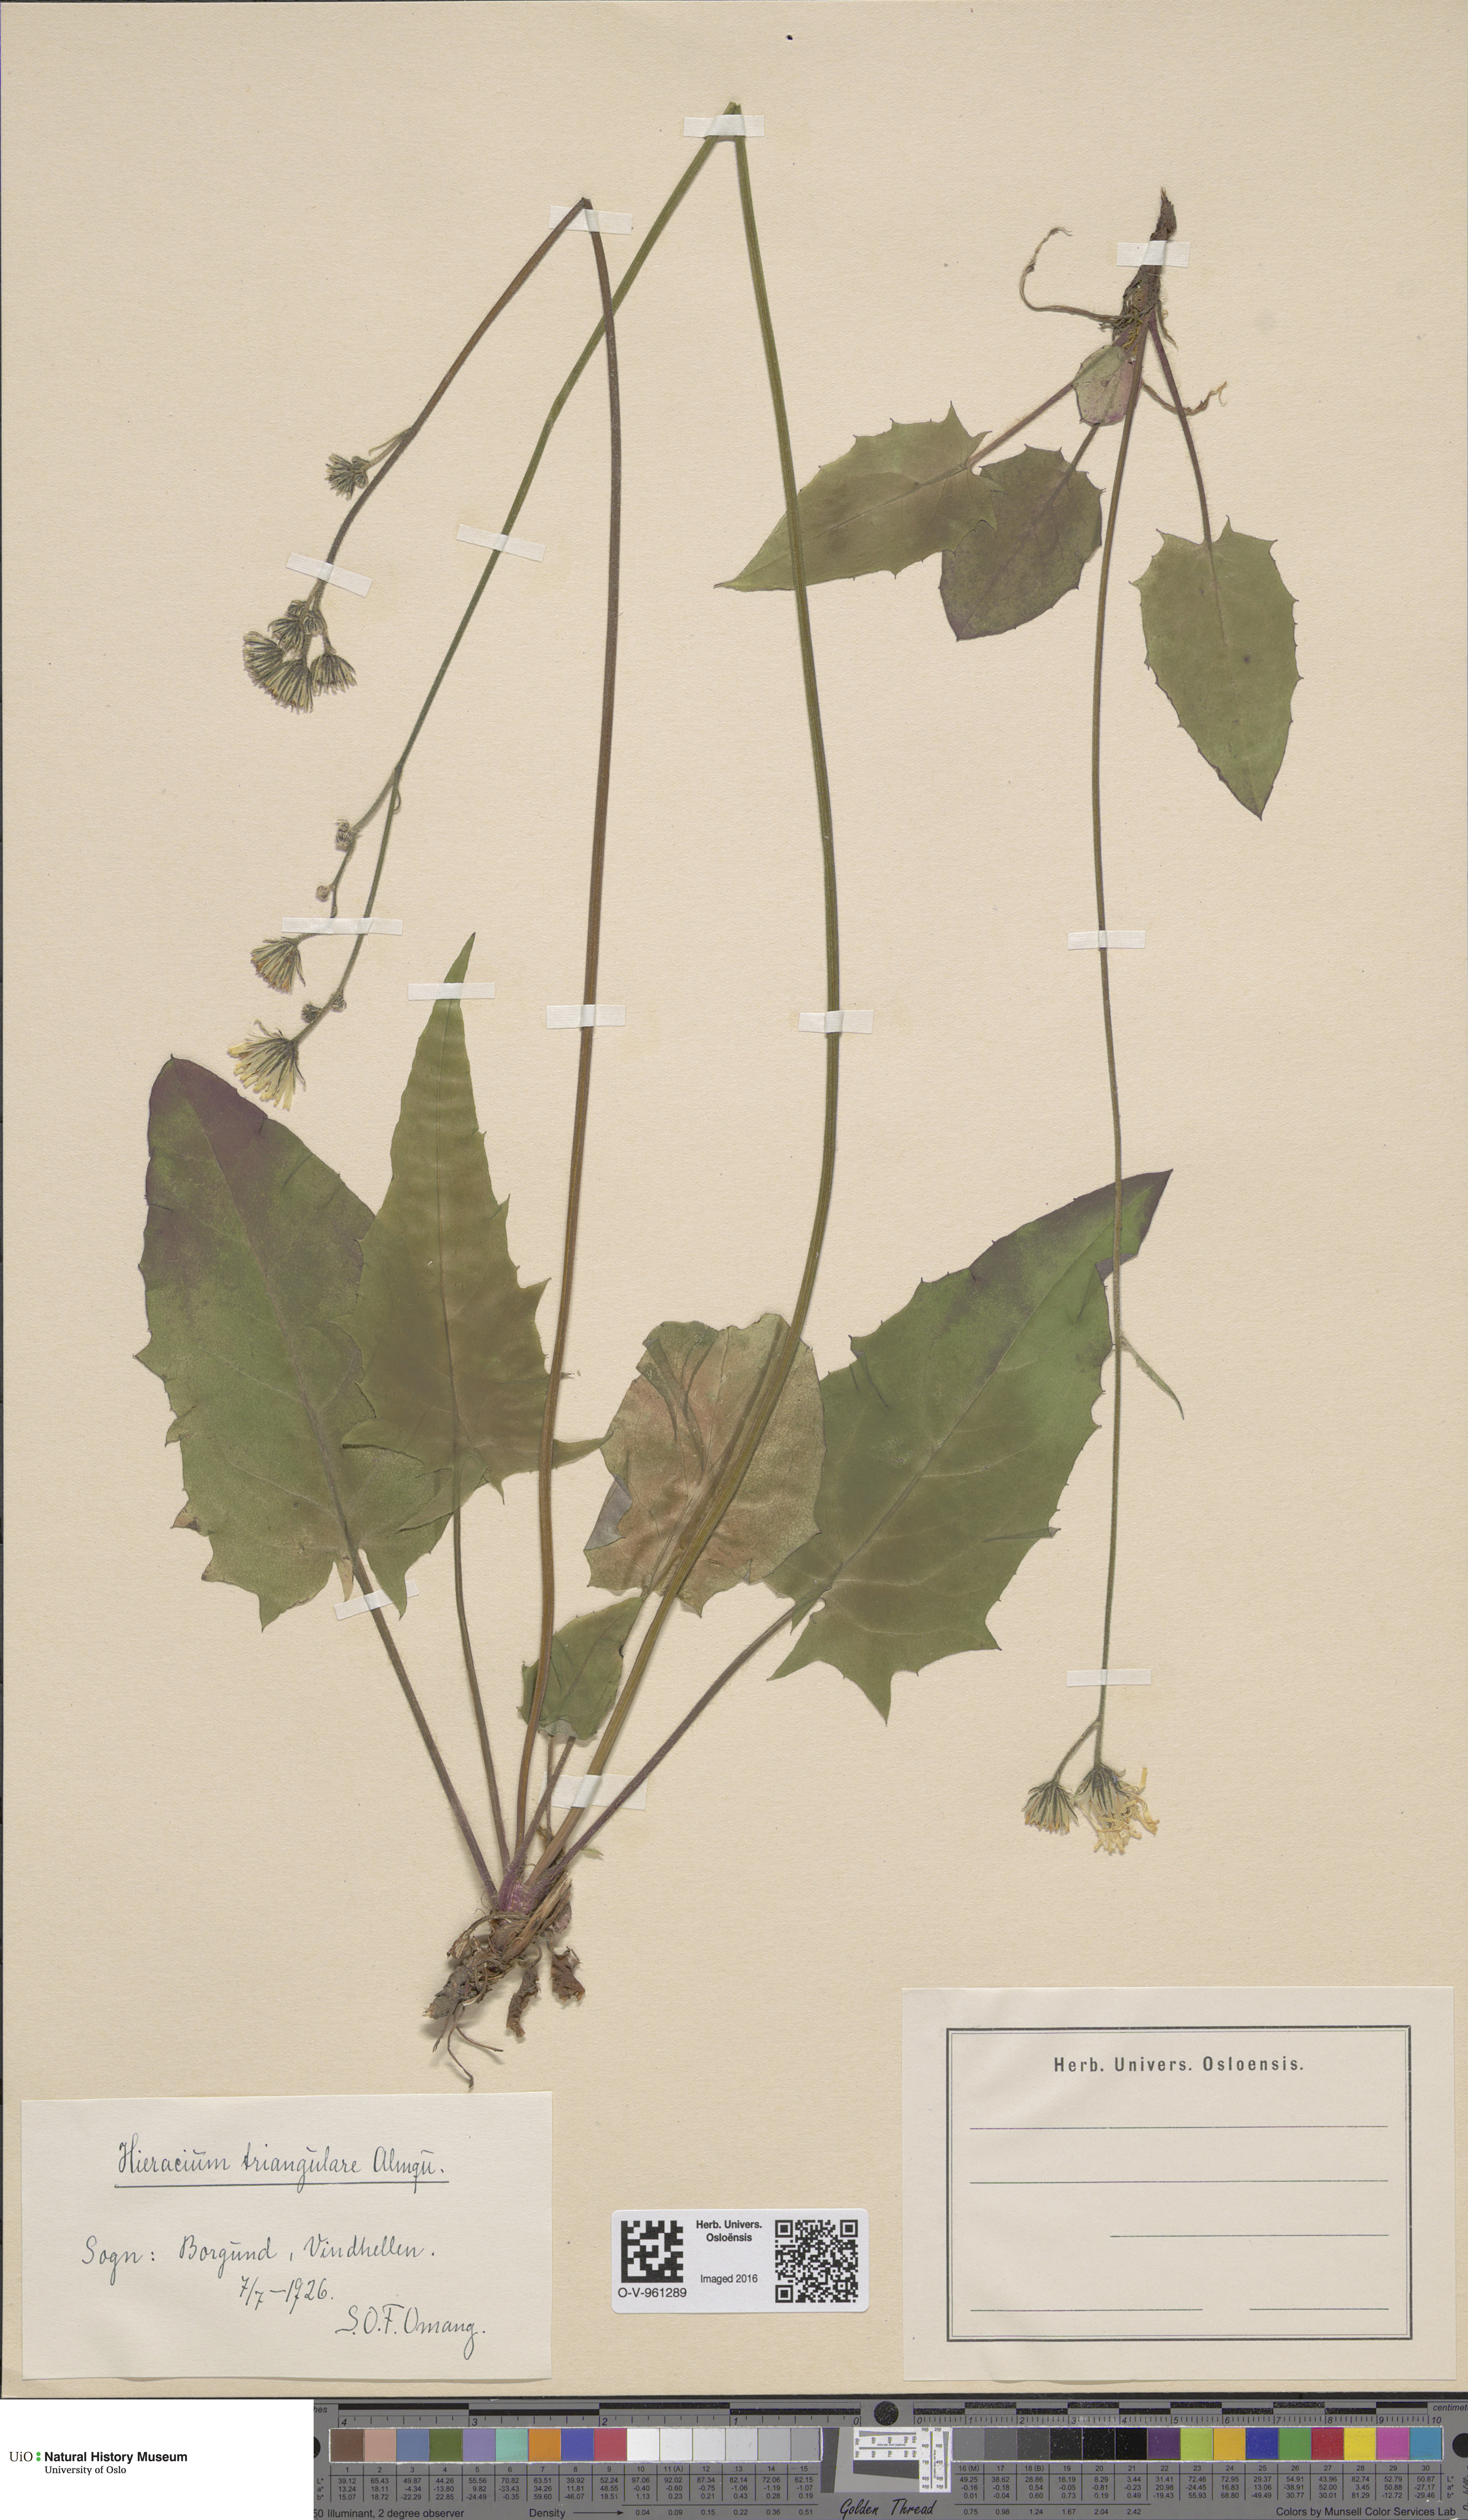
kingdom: Plantae
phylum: Tracheophyta
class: Magnoliopsida
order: Asterales
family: Asteraceae
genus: Hieracium
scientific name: Hieracium triangulare
